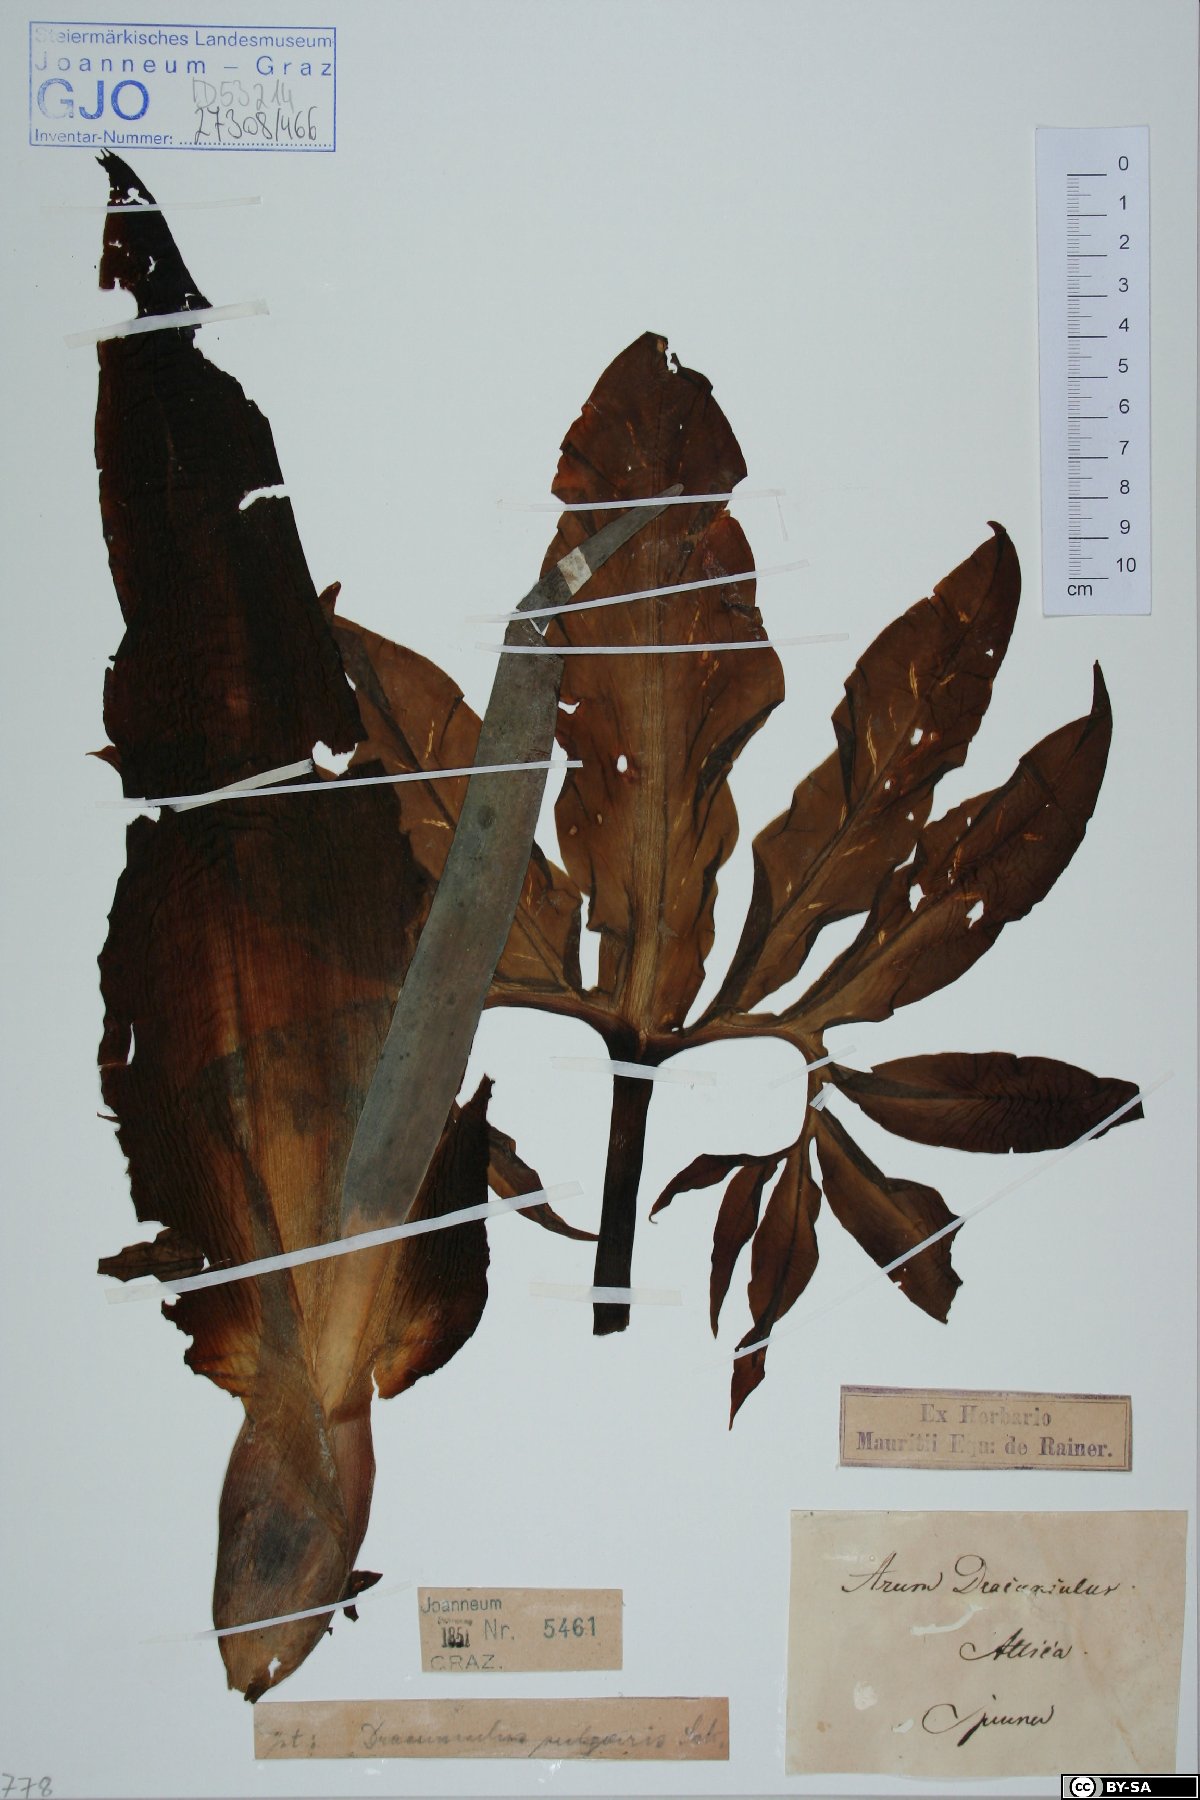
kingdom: Plantae
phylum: Tracheophyta
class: Liliopsida
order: Alismatales
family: Araceae
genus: Dracunculus
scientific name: Dracunculus vulgaris
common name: Dragon arum
